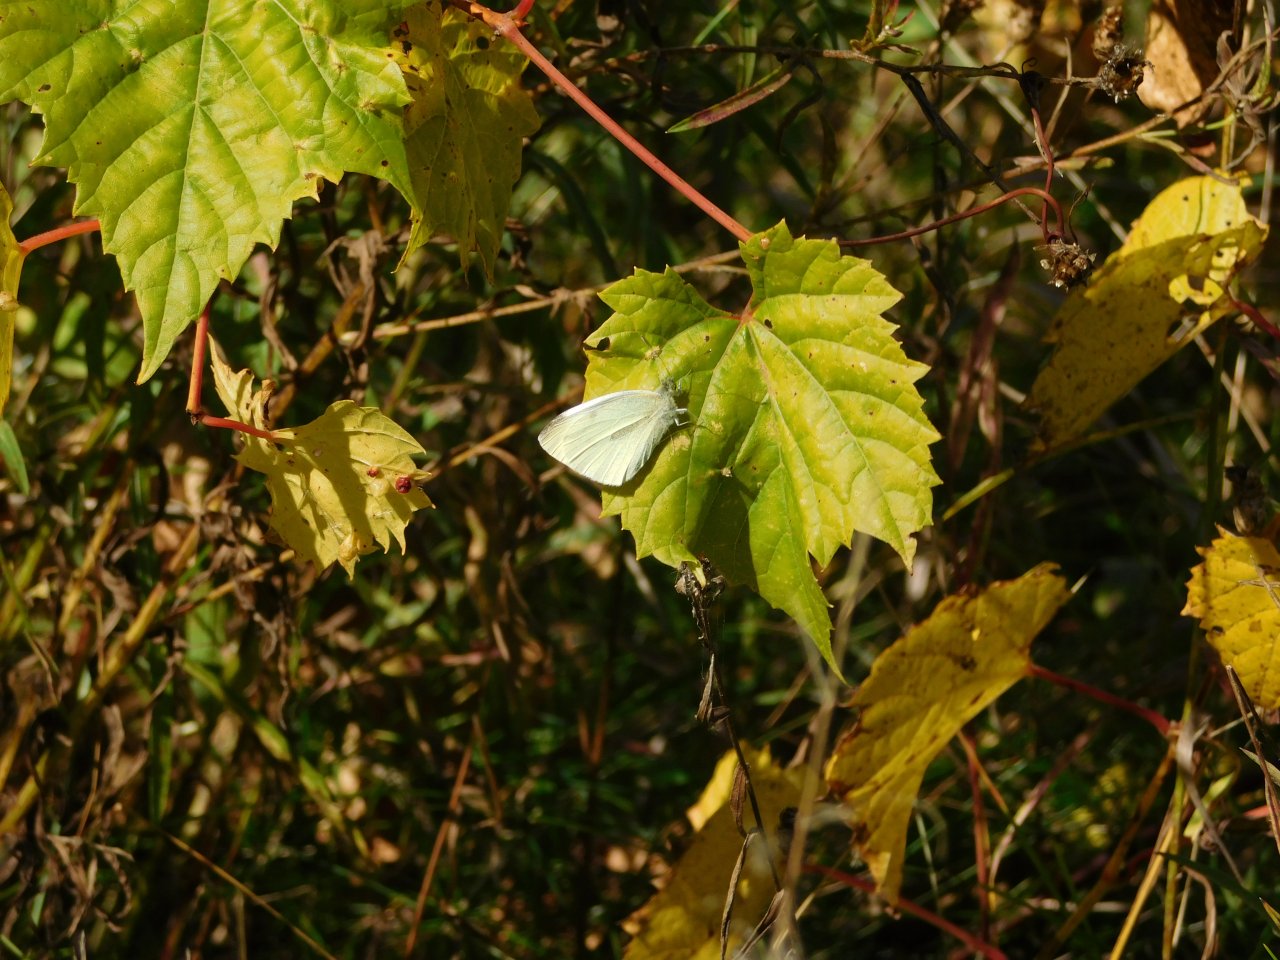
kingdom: Animalia
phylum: Arthropoda
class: Insecta
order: Lepidoptera
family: Pieridae
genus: Pieris
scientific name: Pieris rapae
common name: Cabbage White
